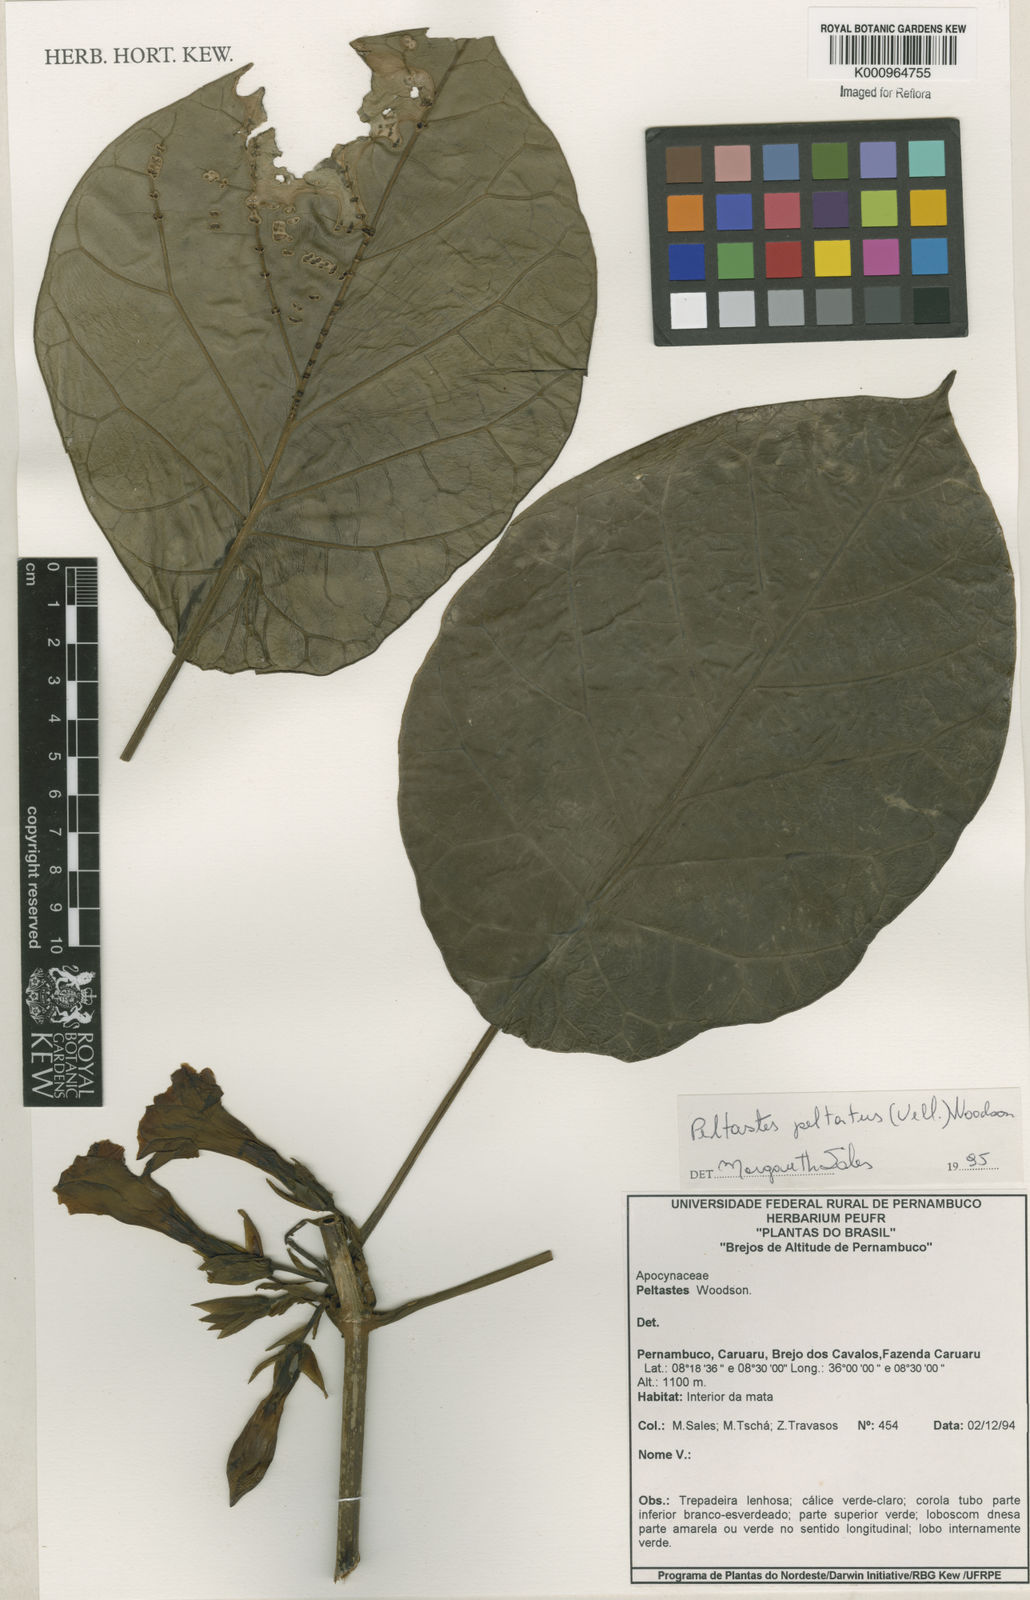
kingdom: Plantae
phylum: Tracheophyta
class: Magnoliopsida
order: Gentianales
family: Apocynaceae
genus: Macropharynx
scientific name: Macropharynx peltata
